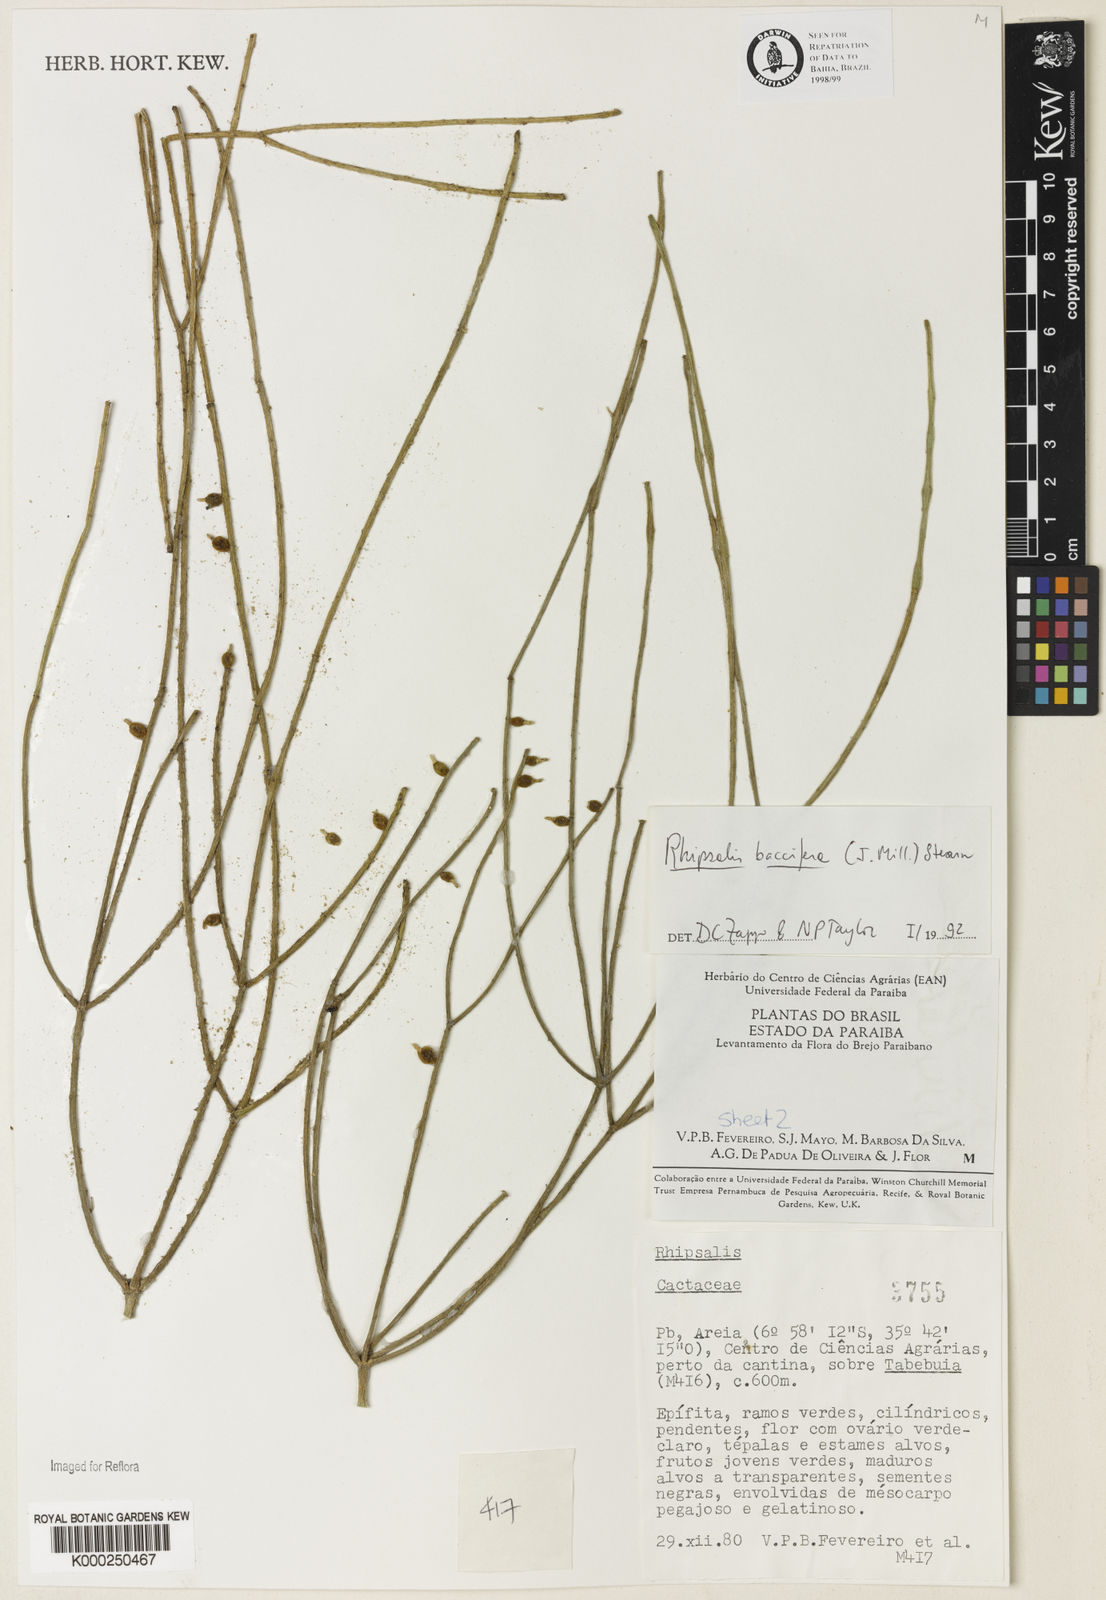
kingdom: Plantae
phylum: Tracheophyta
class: Magnoliopsida
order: Caryophyllales
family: Cactaceae
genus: Rhipsalis
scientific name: Rhipsalis baccifera
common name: Mistletoe cactus
